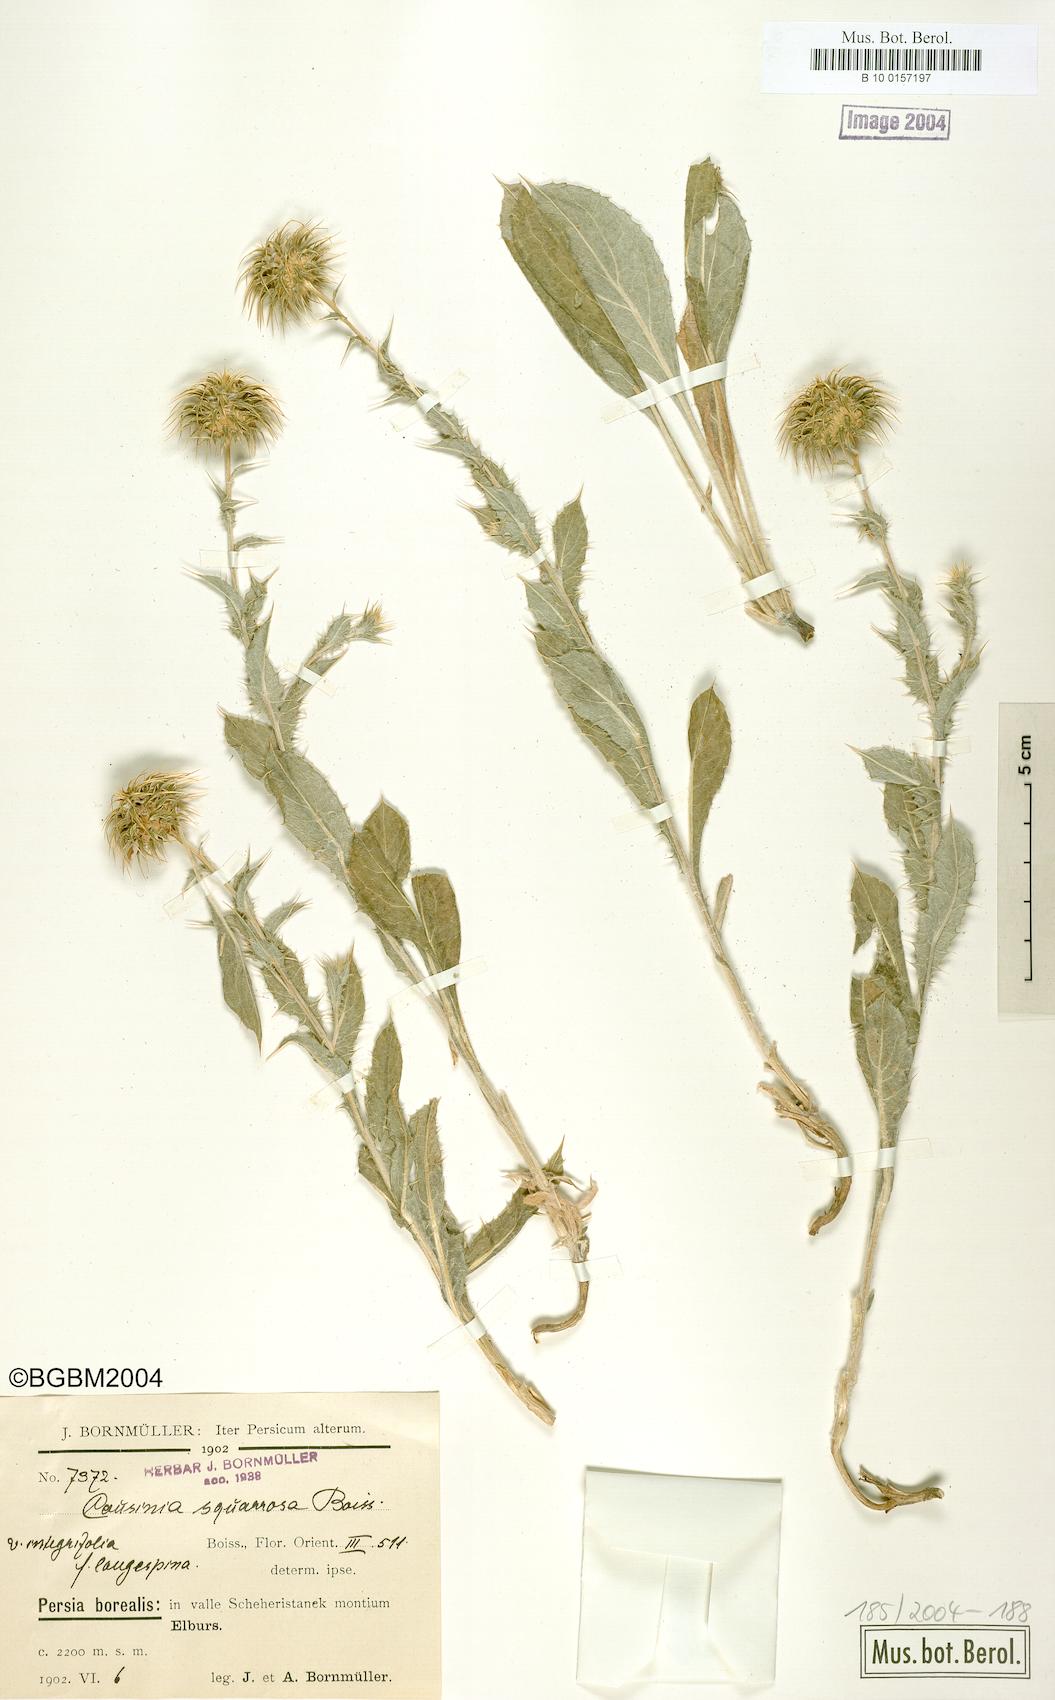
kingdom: Plantae
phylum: Tracheophyta
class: Magnoliopsida
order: Asterales
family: Asteraceae
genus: Cousinia
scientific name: Cousinia
